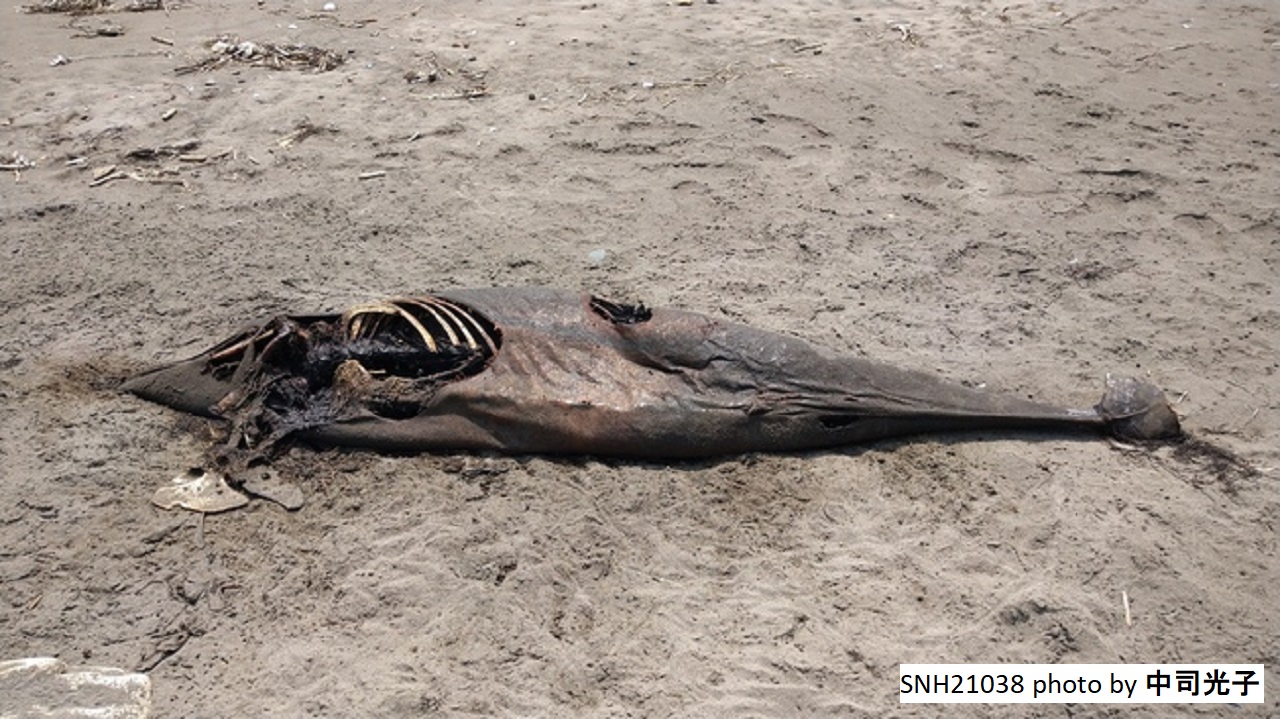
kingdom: Animalia
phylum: Chordata
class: Mammalia
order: Cetacea
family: Delphinidae
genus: Stenella
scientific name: Stenella coeruleoalba
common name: Striped dolphin
